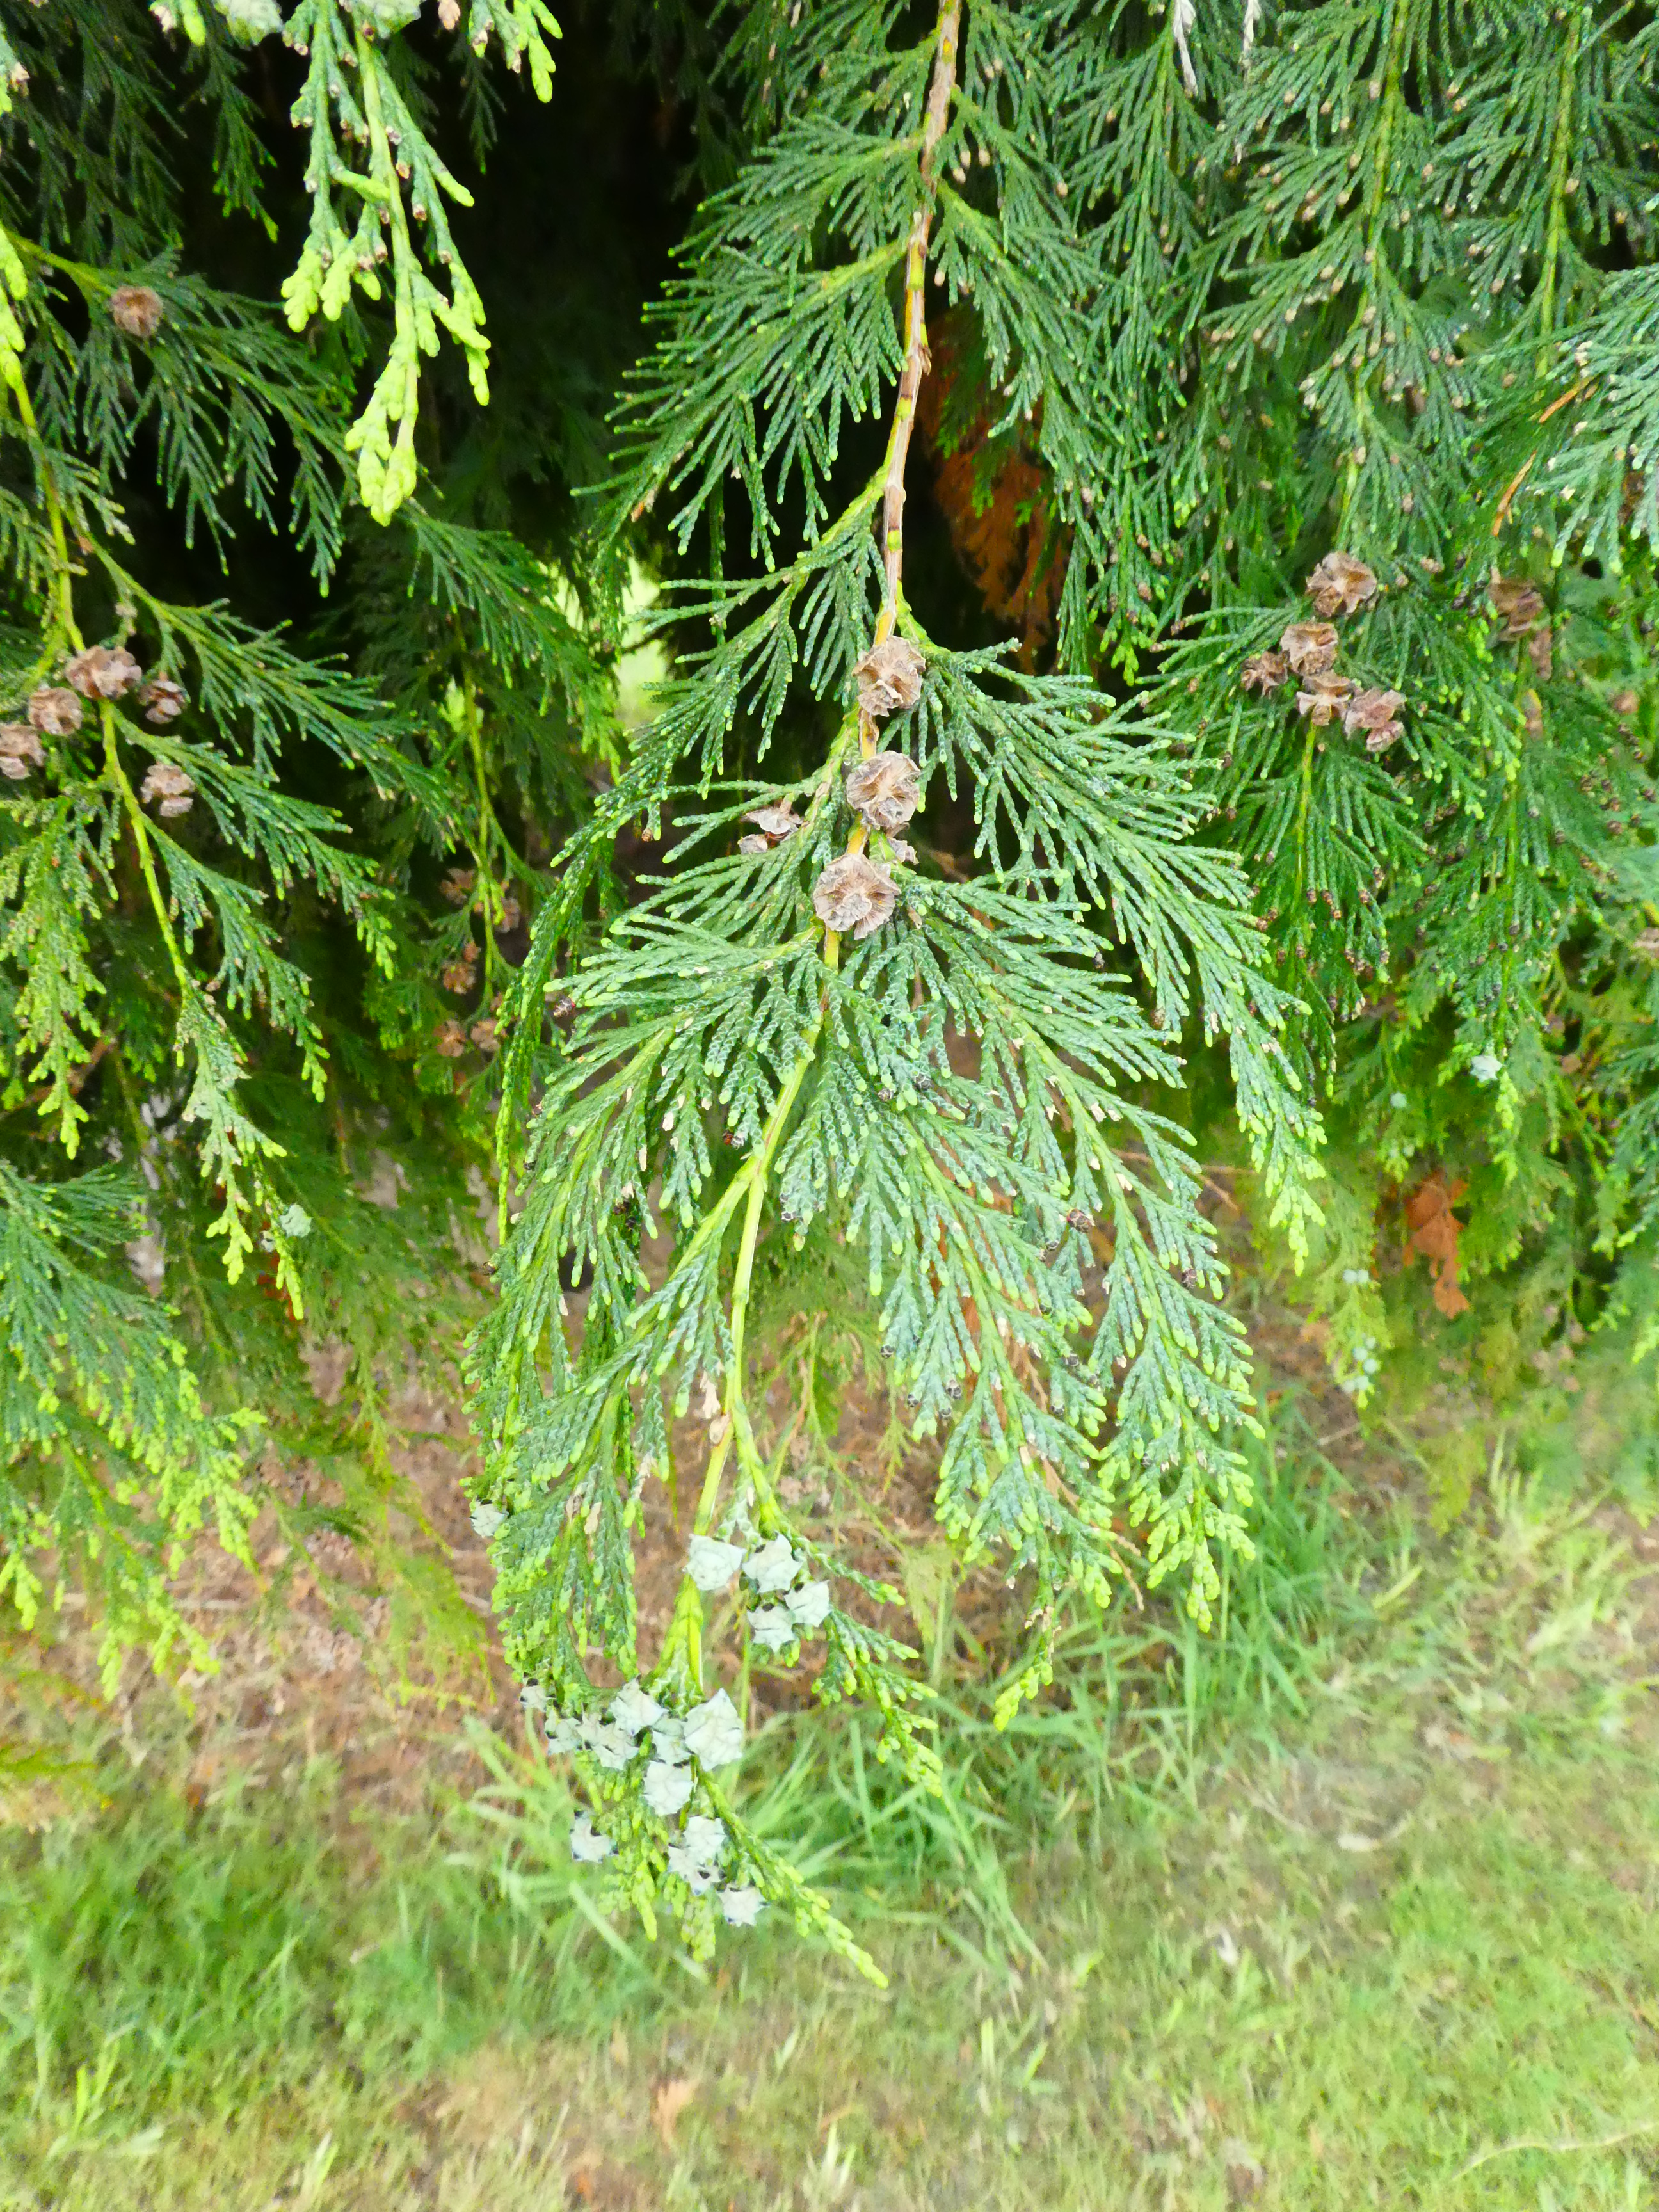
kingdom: Plantae
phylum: Tracheophyta
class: Pinopsida
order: Pinales
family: Cupressaceae
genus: Chamaecyparis
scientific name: Chamaecyparis lawsoniana
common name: Lawson's cypress
